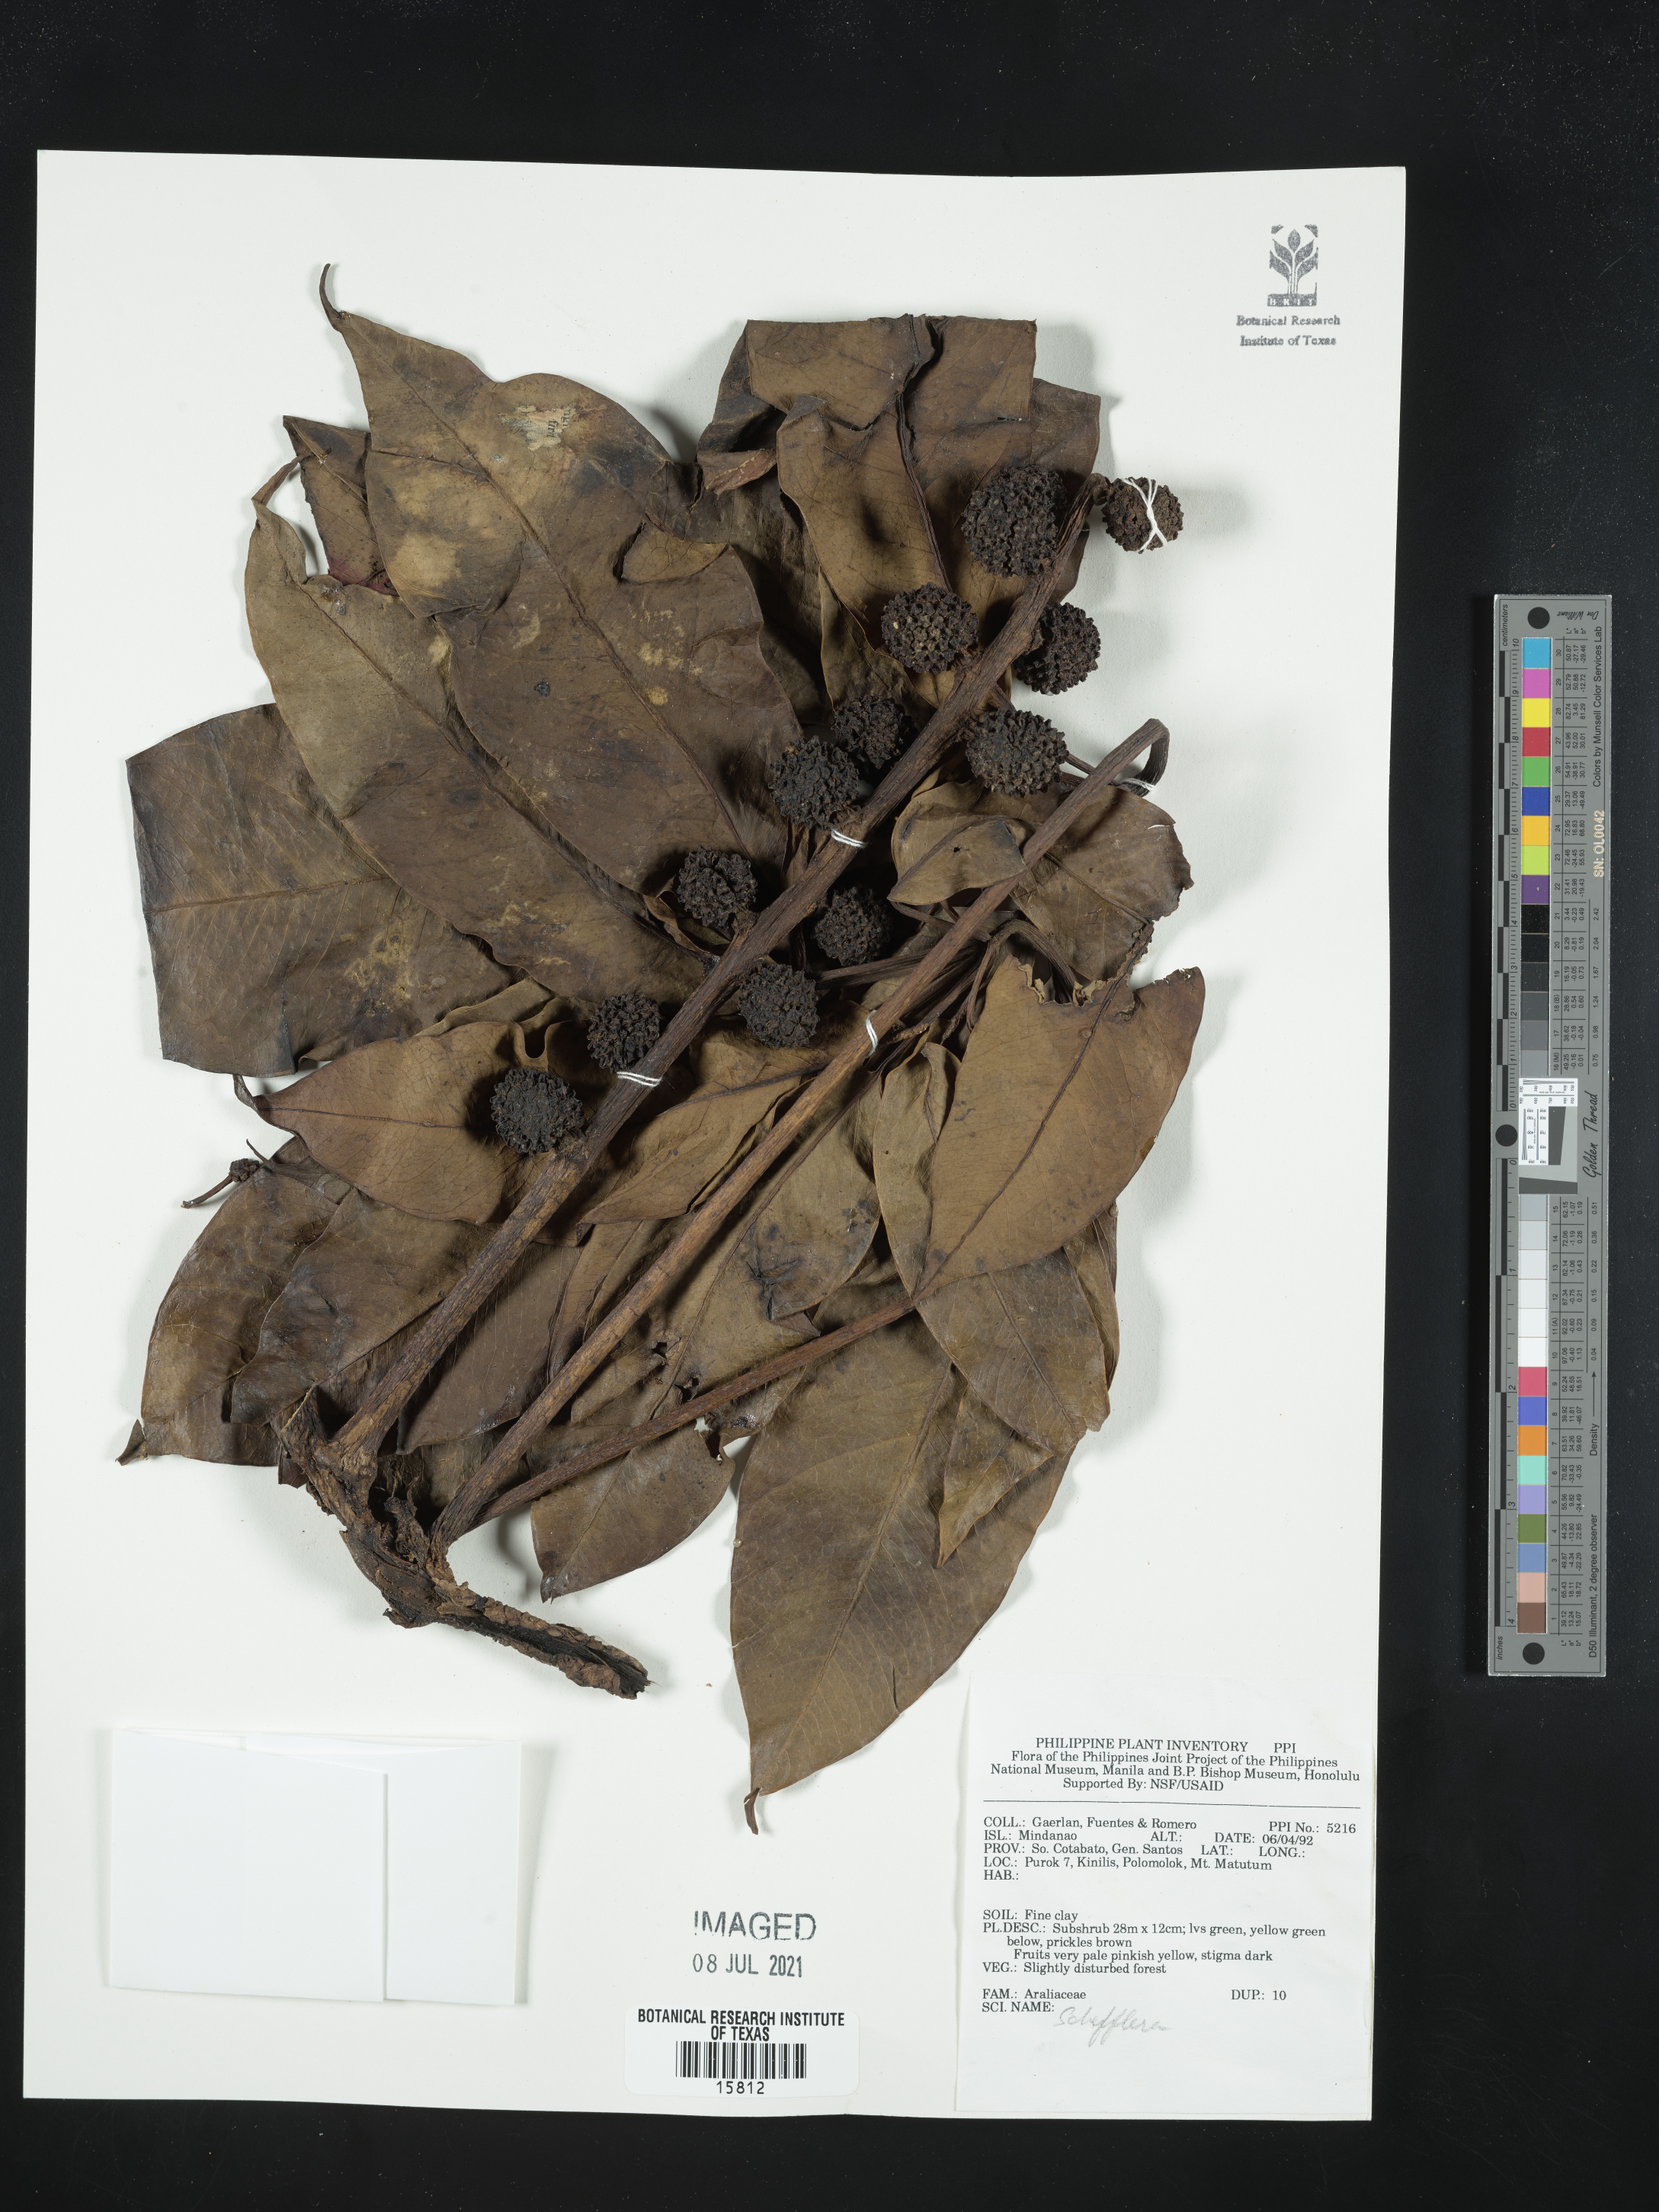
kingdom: Plantae
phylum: Tracheophyta
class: Magnoliopsida
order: Apiales
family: Araliaceae
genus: Schefflera
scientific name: Schefflera
